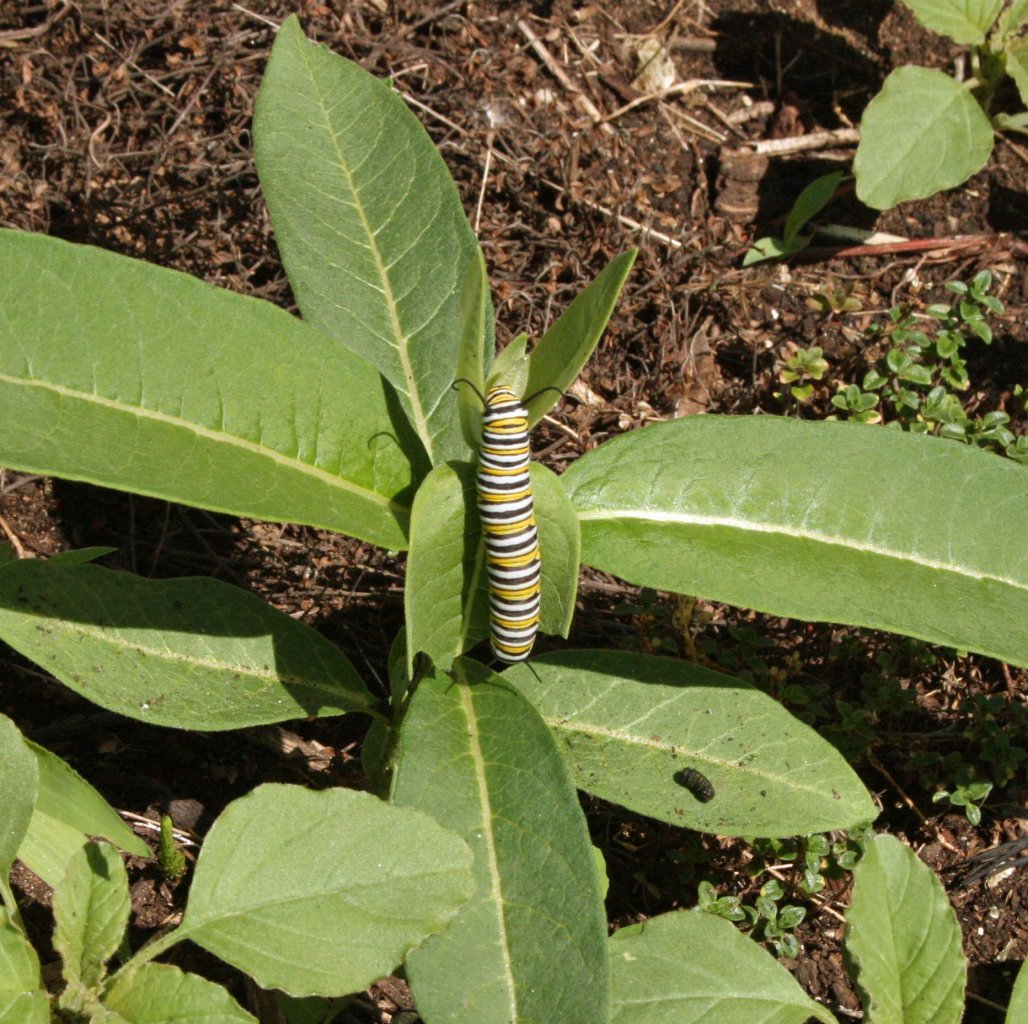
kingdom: Animalia
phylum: Arthropoda
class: Insecta
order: Lepidoptera
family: Nymphalidae
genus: Danaus
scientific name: Danaus plexippus
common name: Monarch
